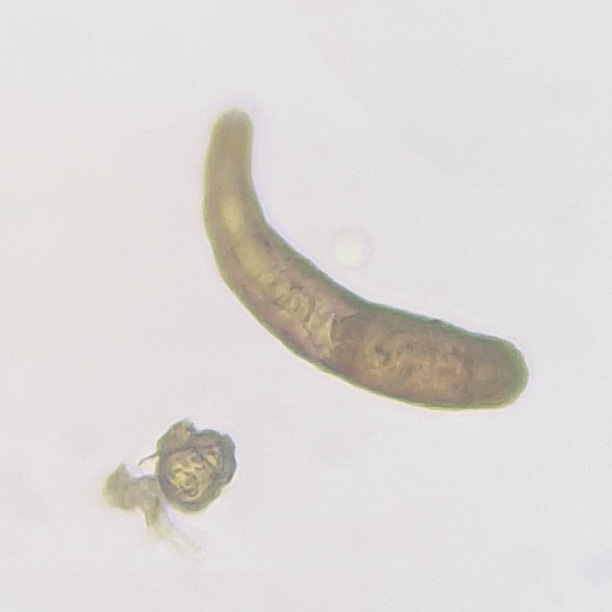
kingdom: Fungi
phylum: Ascomycota
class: Dothideomycetes
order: Pleosporales
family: Massarinaceae
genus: Helminthosporium
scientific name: Helminthosporium oligosporum
